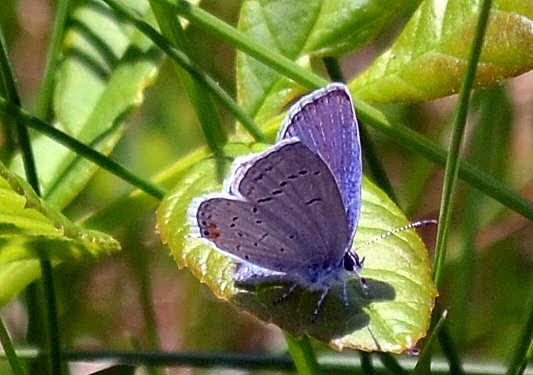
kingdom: Animalia
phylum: Arthropoda
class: Insecta
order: Lepidoptera
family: Lycaenidae
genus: Elkalyce
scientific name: Elkalyce comyntas
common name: Eastern Tailed-Blue
